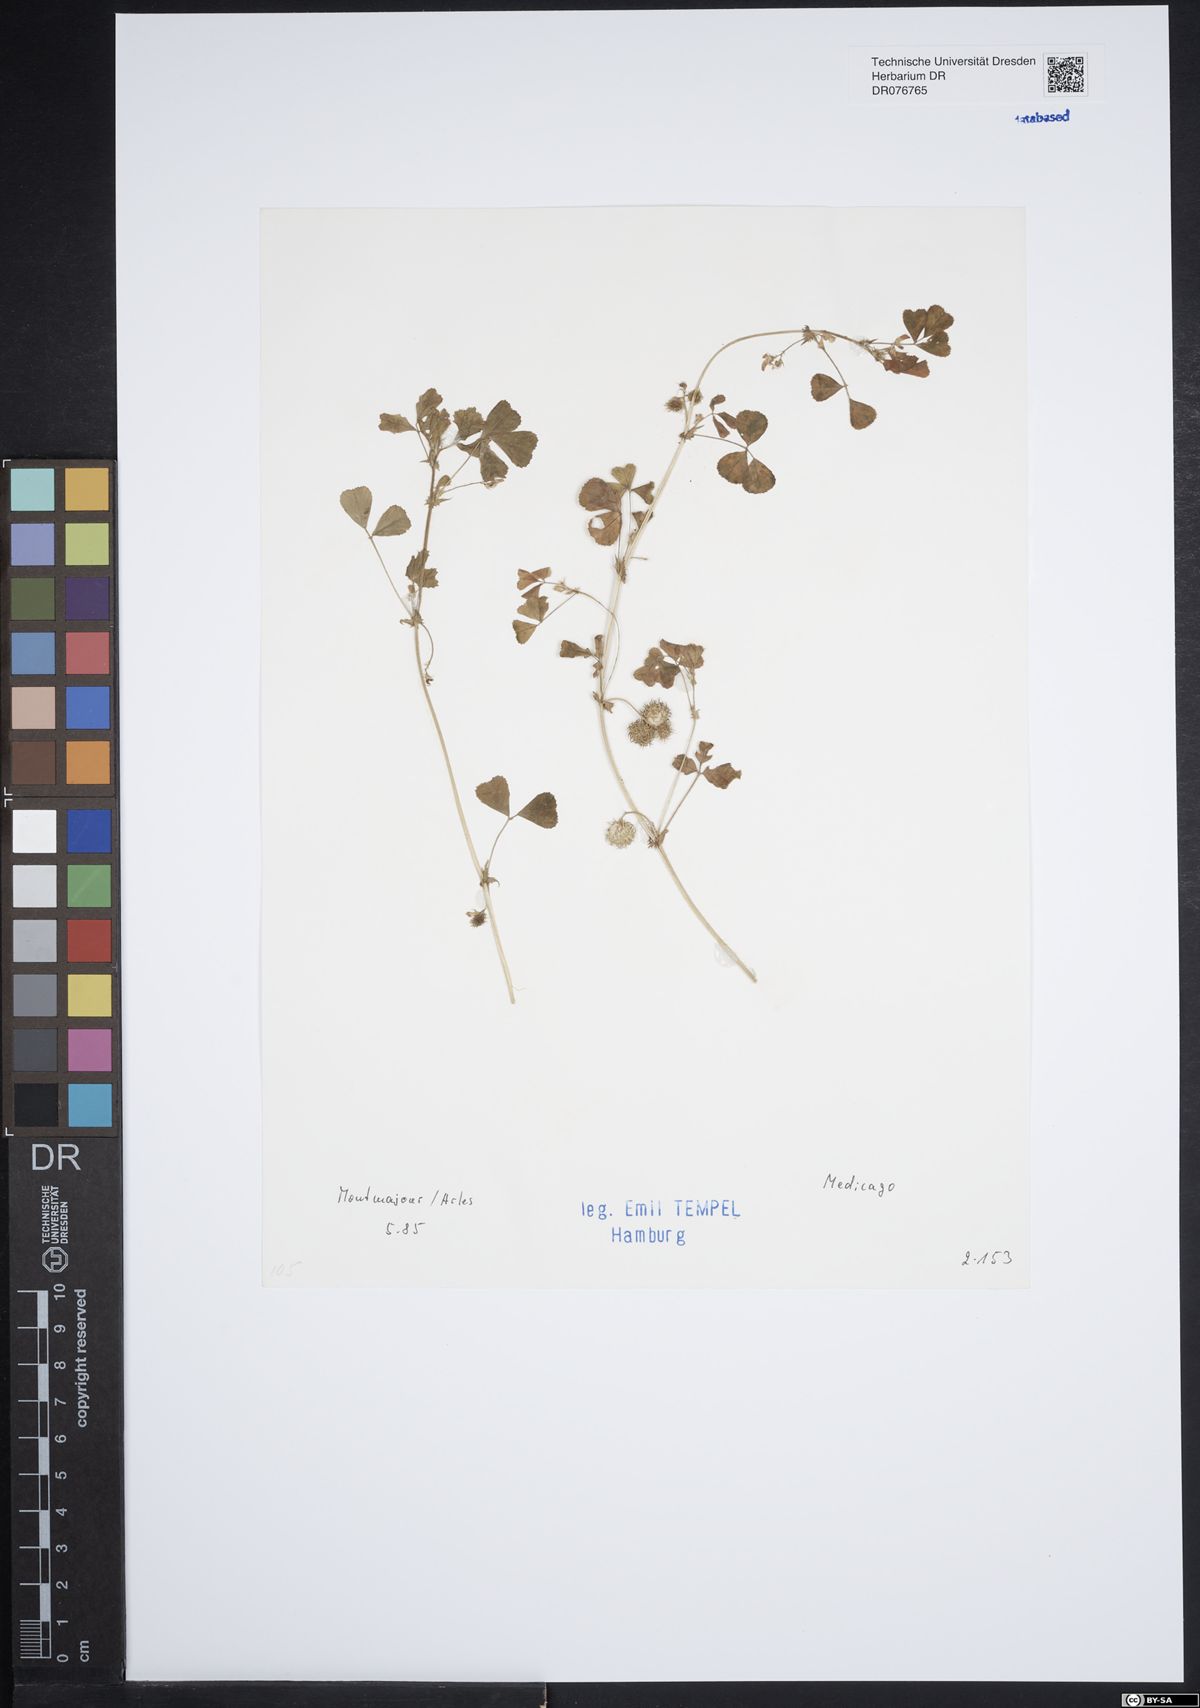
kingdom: Plantae
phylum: Tracheophyta
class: Magnoliopsida
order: Fabales
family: Fabaceae
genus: Medicago
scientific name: Medicago
